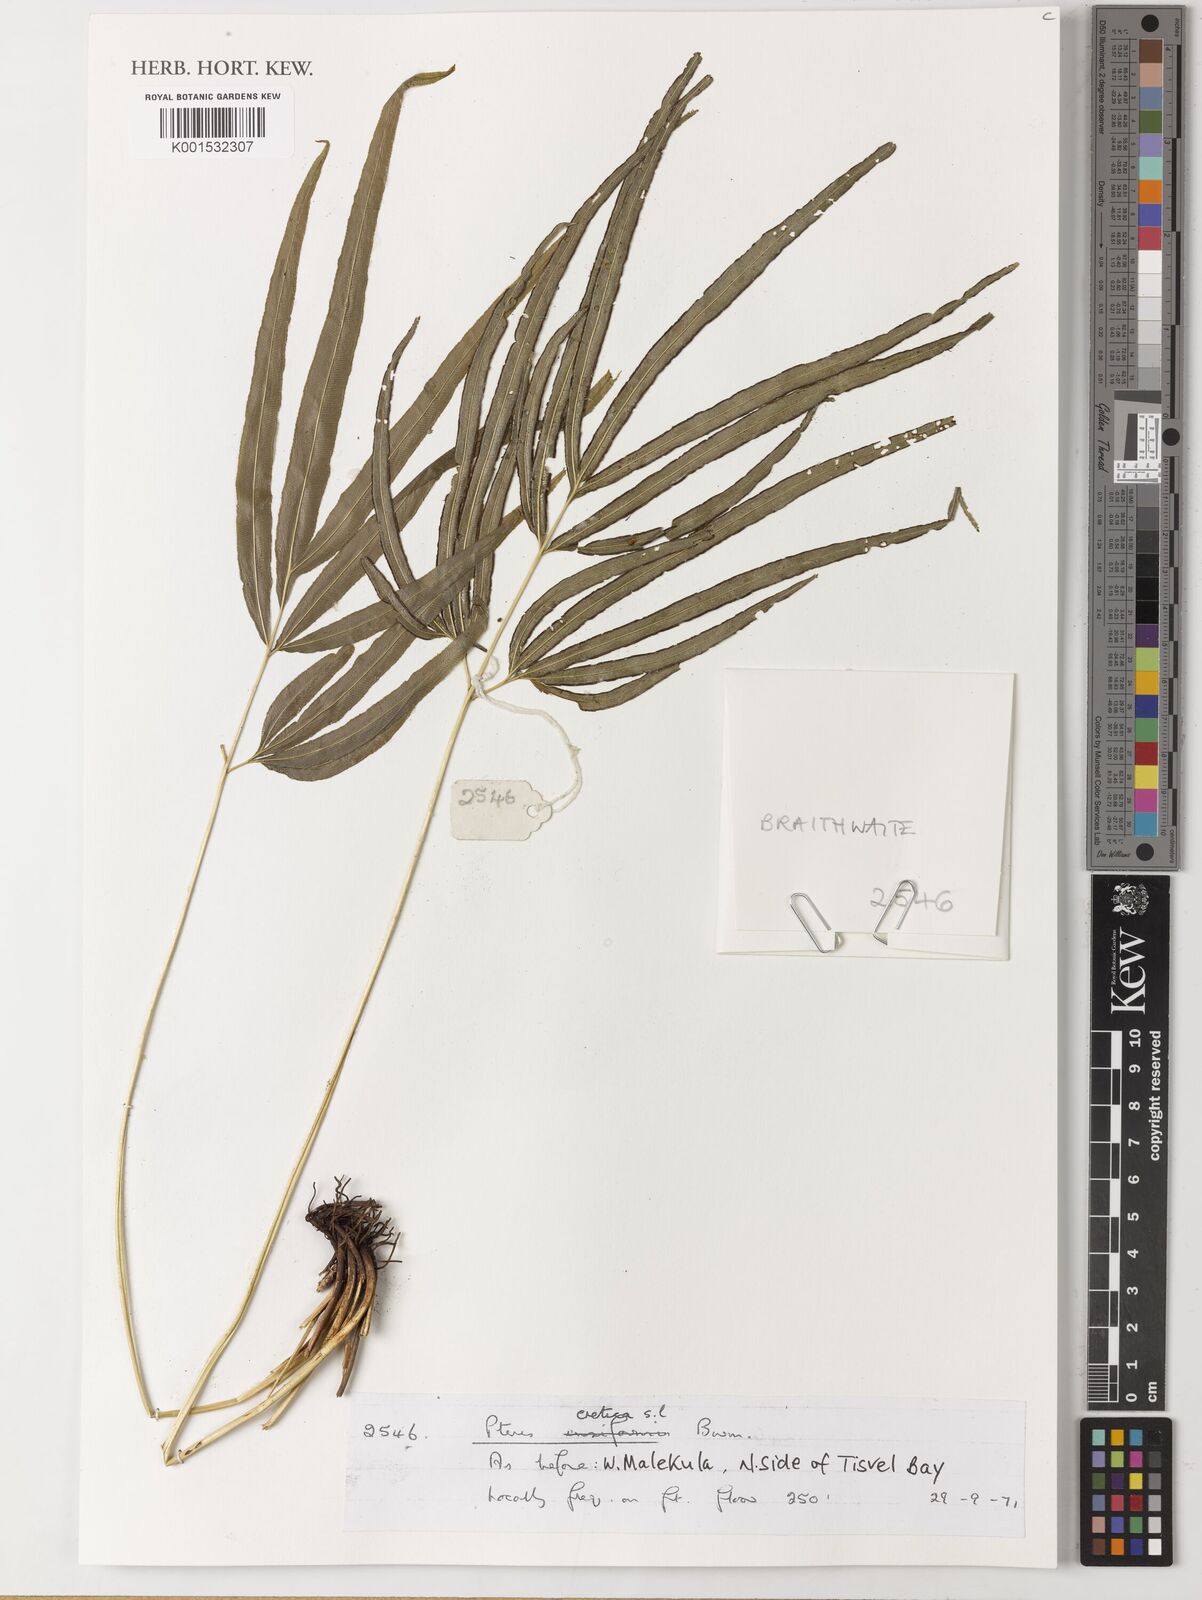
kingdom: Plantae
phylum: Tracheophyta
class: Polypodiopsida
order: Polypodiales
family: Pteridaceae
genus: Pteris
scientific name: Pteris cretica
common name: Ribbon fern
